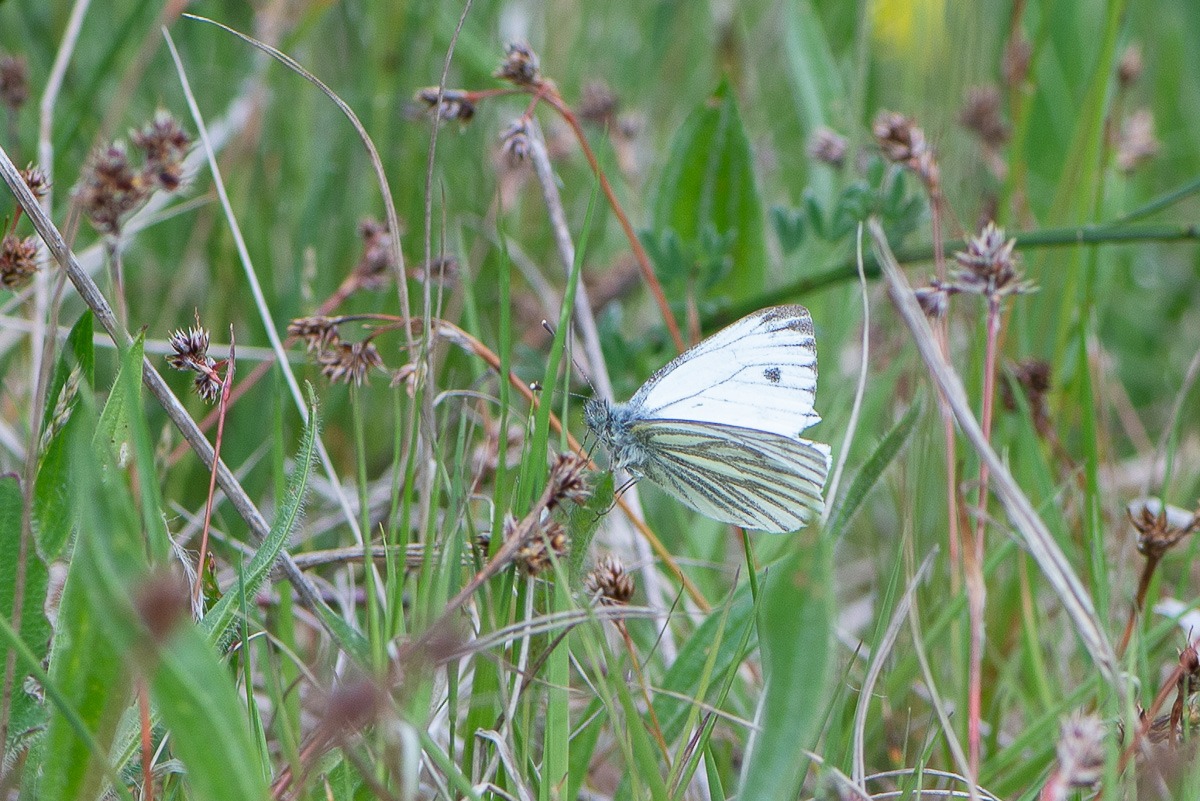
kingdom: Animalia
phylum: Arthropoda
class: Insecta
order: Lepidoptera
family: Pieridae
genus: Pieris
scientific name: Pieris napi
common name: Grønåret kålsommerfugl
